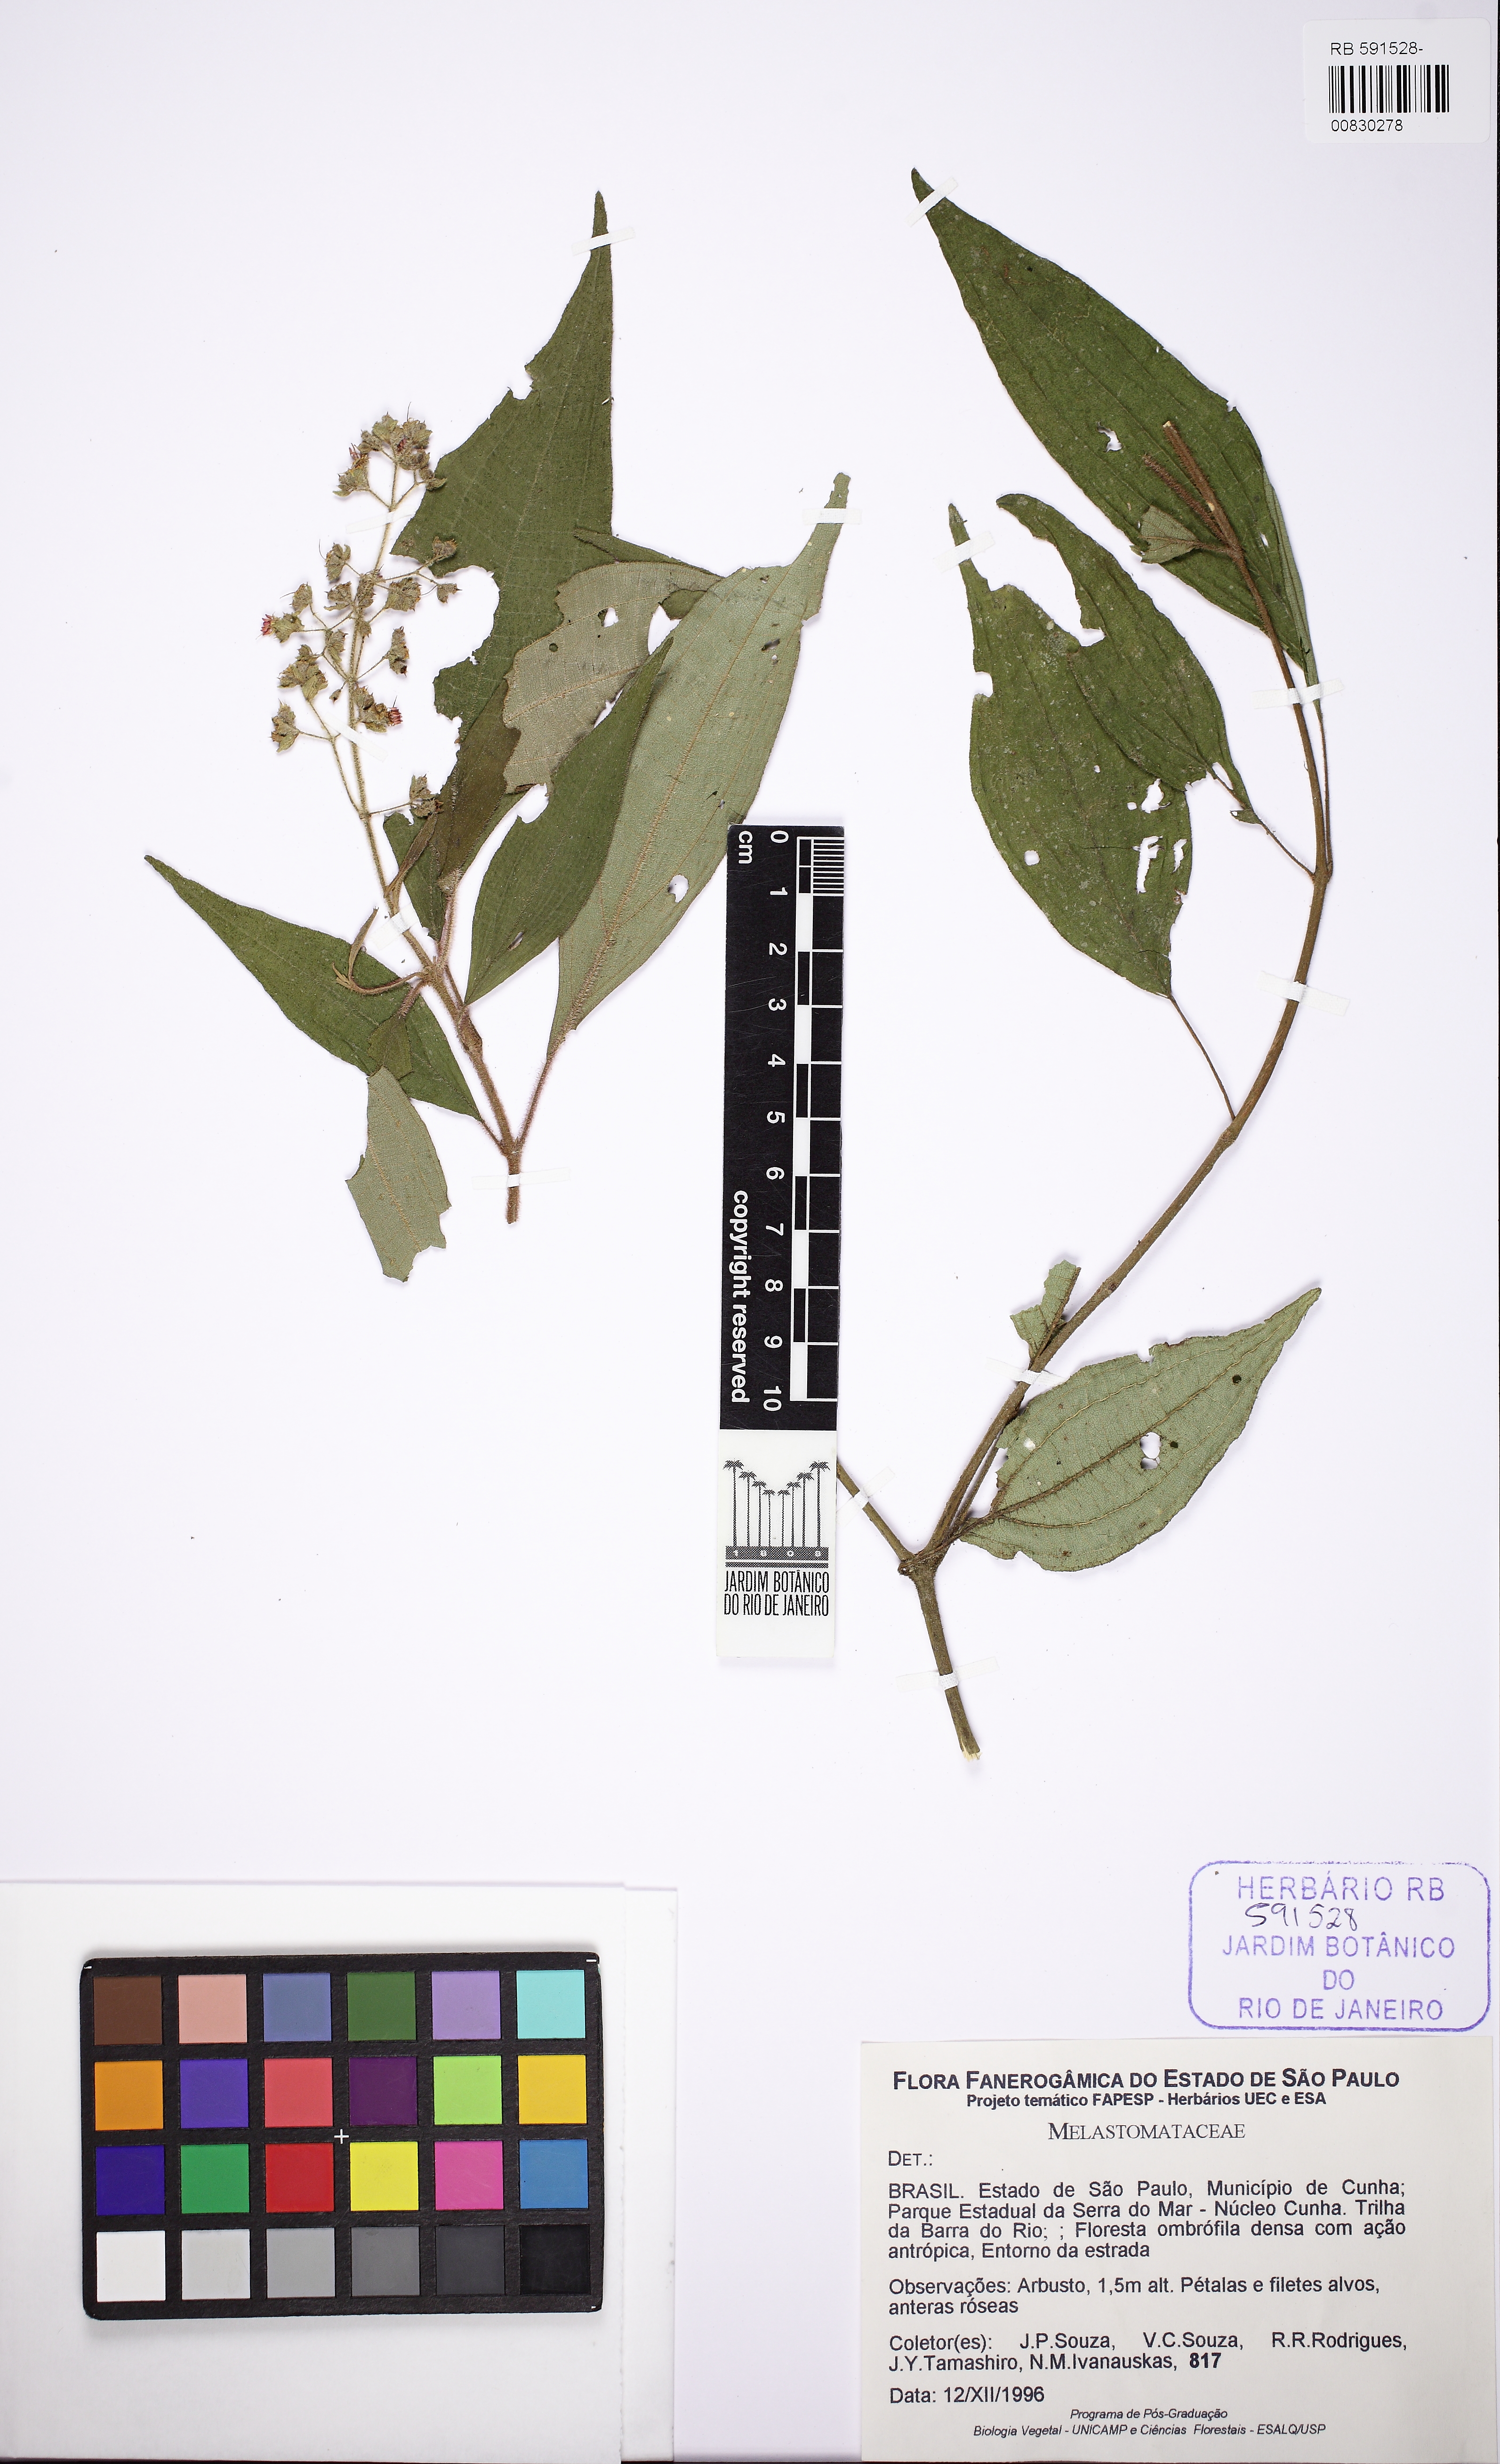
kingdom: Plantae
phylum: Tracheophyta
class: Magnoliopsida
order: Myrtales
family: Melastomataceae
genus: Tibouchina
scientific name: Tibouchina
